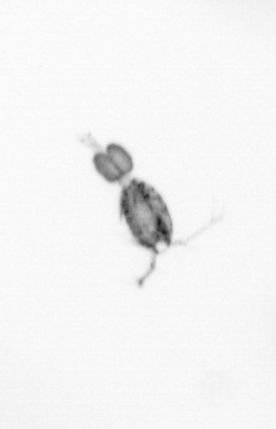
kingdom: Animalia
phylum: Arthropoda
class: Copepoda
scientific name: Copepoda
